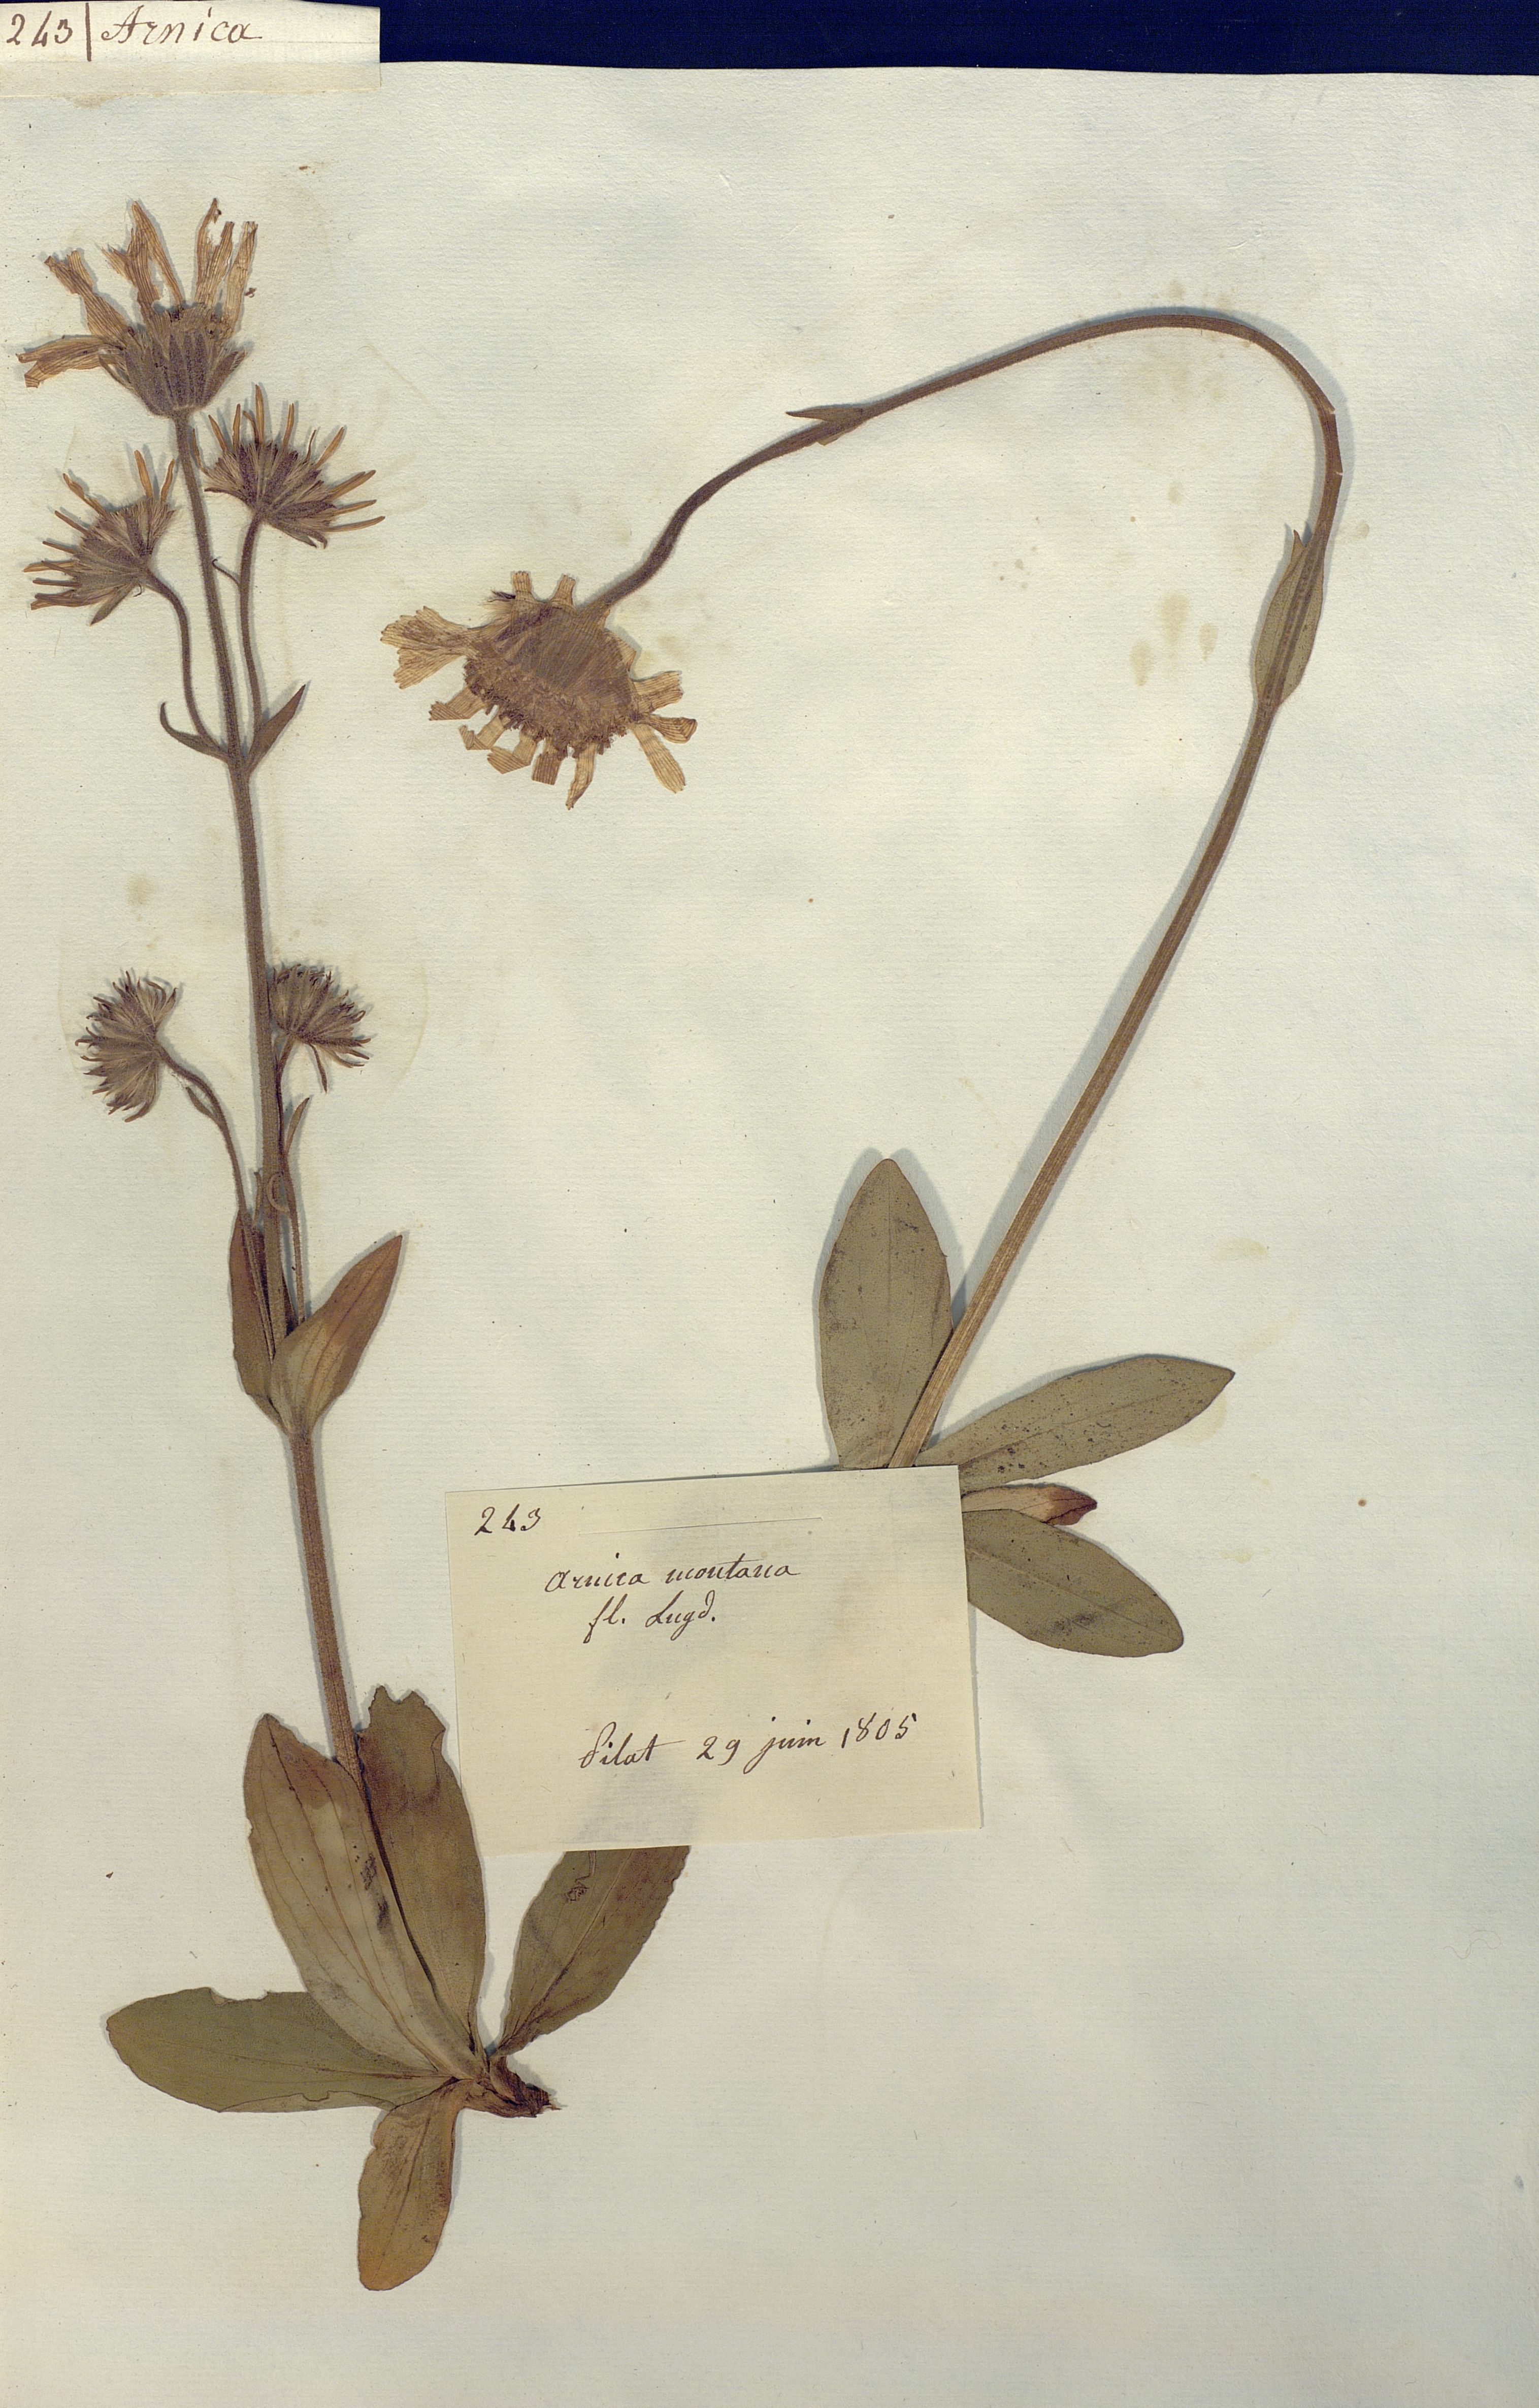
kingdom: Plantae
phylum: Tracheophyta
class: Magnoliopsida
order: Asterales
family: Asteraceae
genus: Arnica
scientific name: Arnica montana
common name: Leopard's bane
